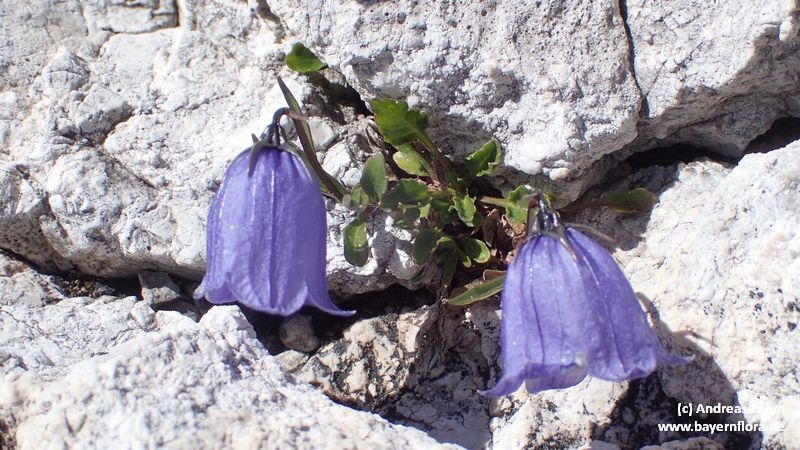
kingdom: Plantae
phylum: Tracheophyta
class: Magnoliopsida
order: Asterales
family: Campanulaceae
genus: Campanula
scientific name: Campanula cochleariifolia
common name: Fairies'-thimbles
